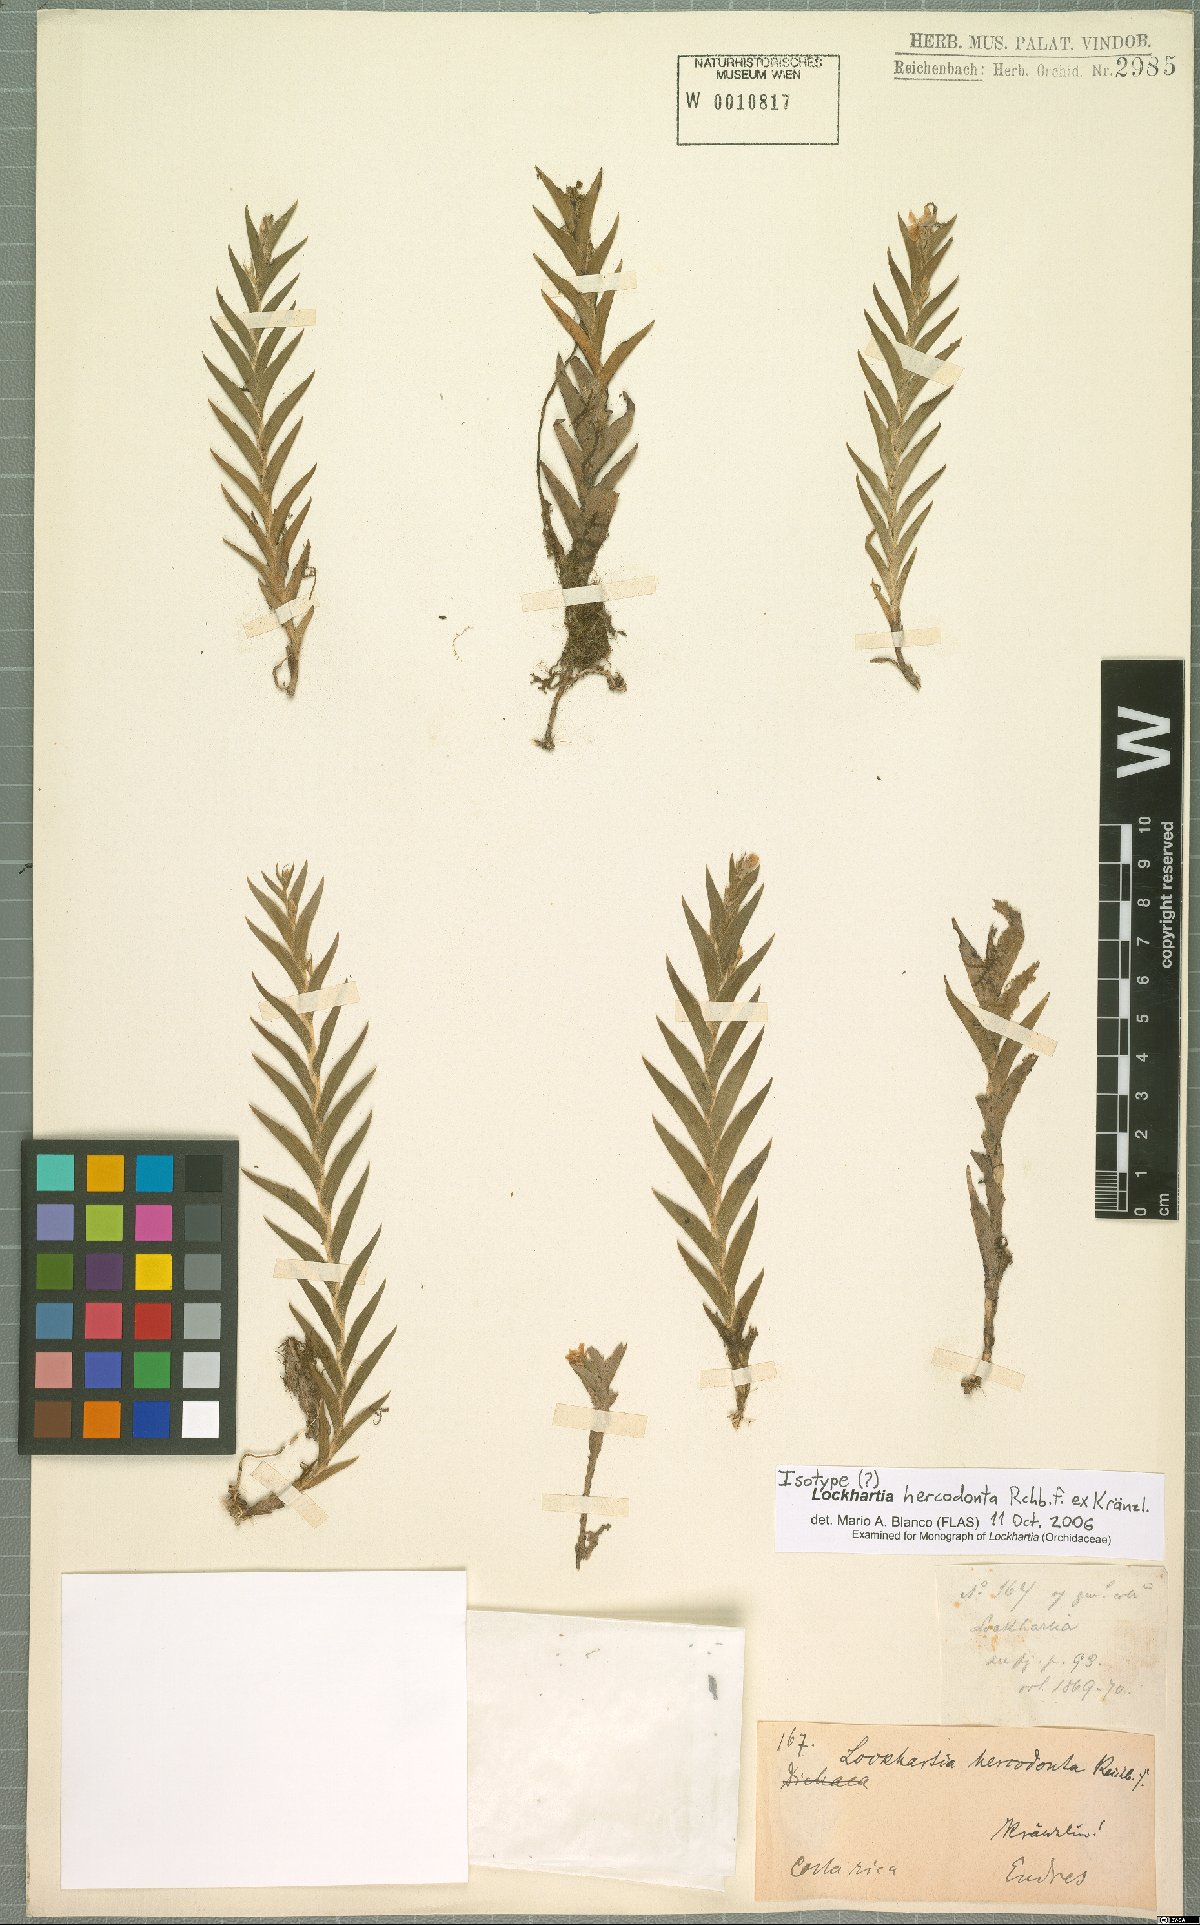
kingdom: Plantae
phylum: Tracheophyta
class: Liliopsida
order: Asparagales
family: Orchidaceae
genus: Lockhartia
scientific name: Lockhartia hercodonta
